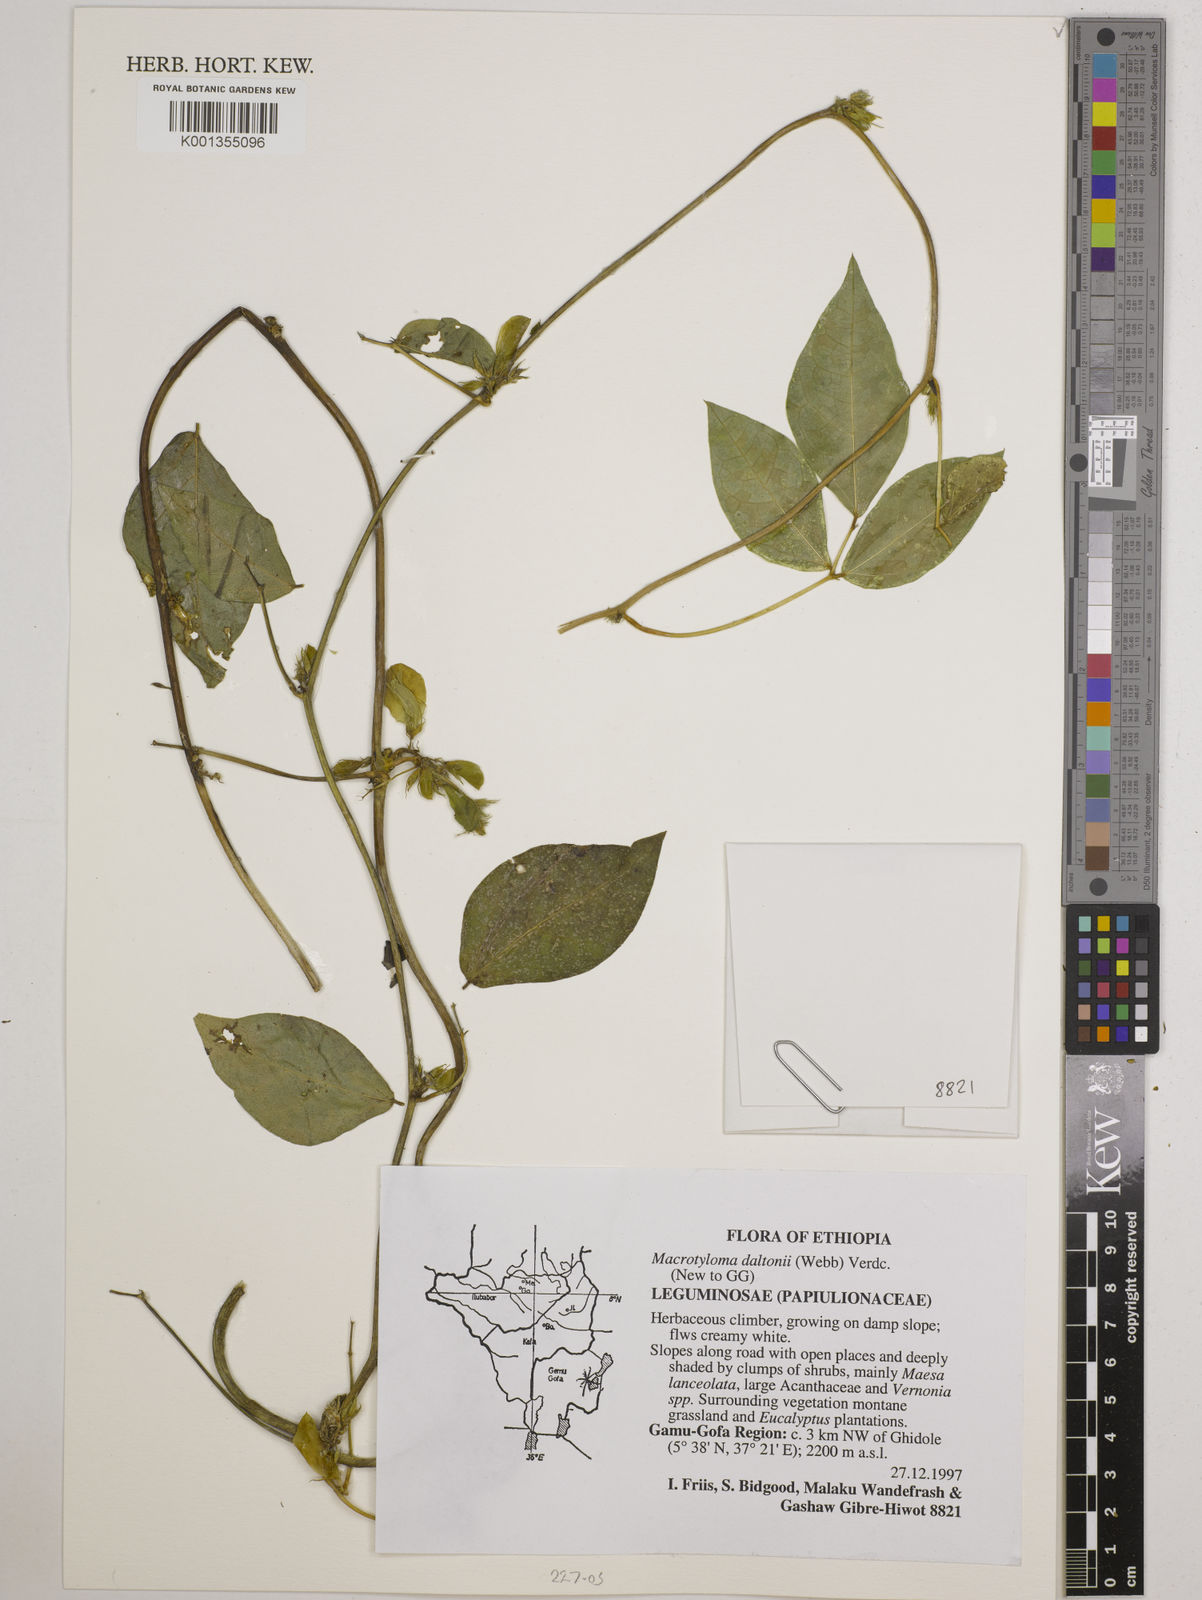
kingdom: Plantae
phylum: Tracheophyta
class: Magnoliopsida
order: Fabales
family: Fabaceae
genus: Macrotyloma
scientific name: Macrotyloma daltonii
